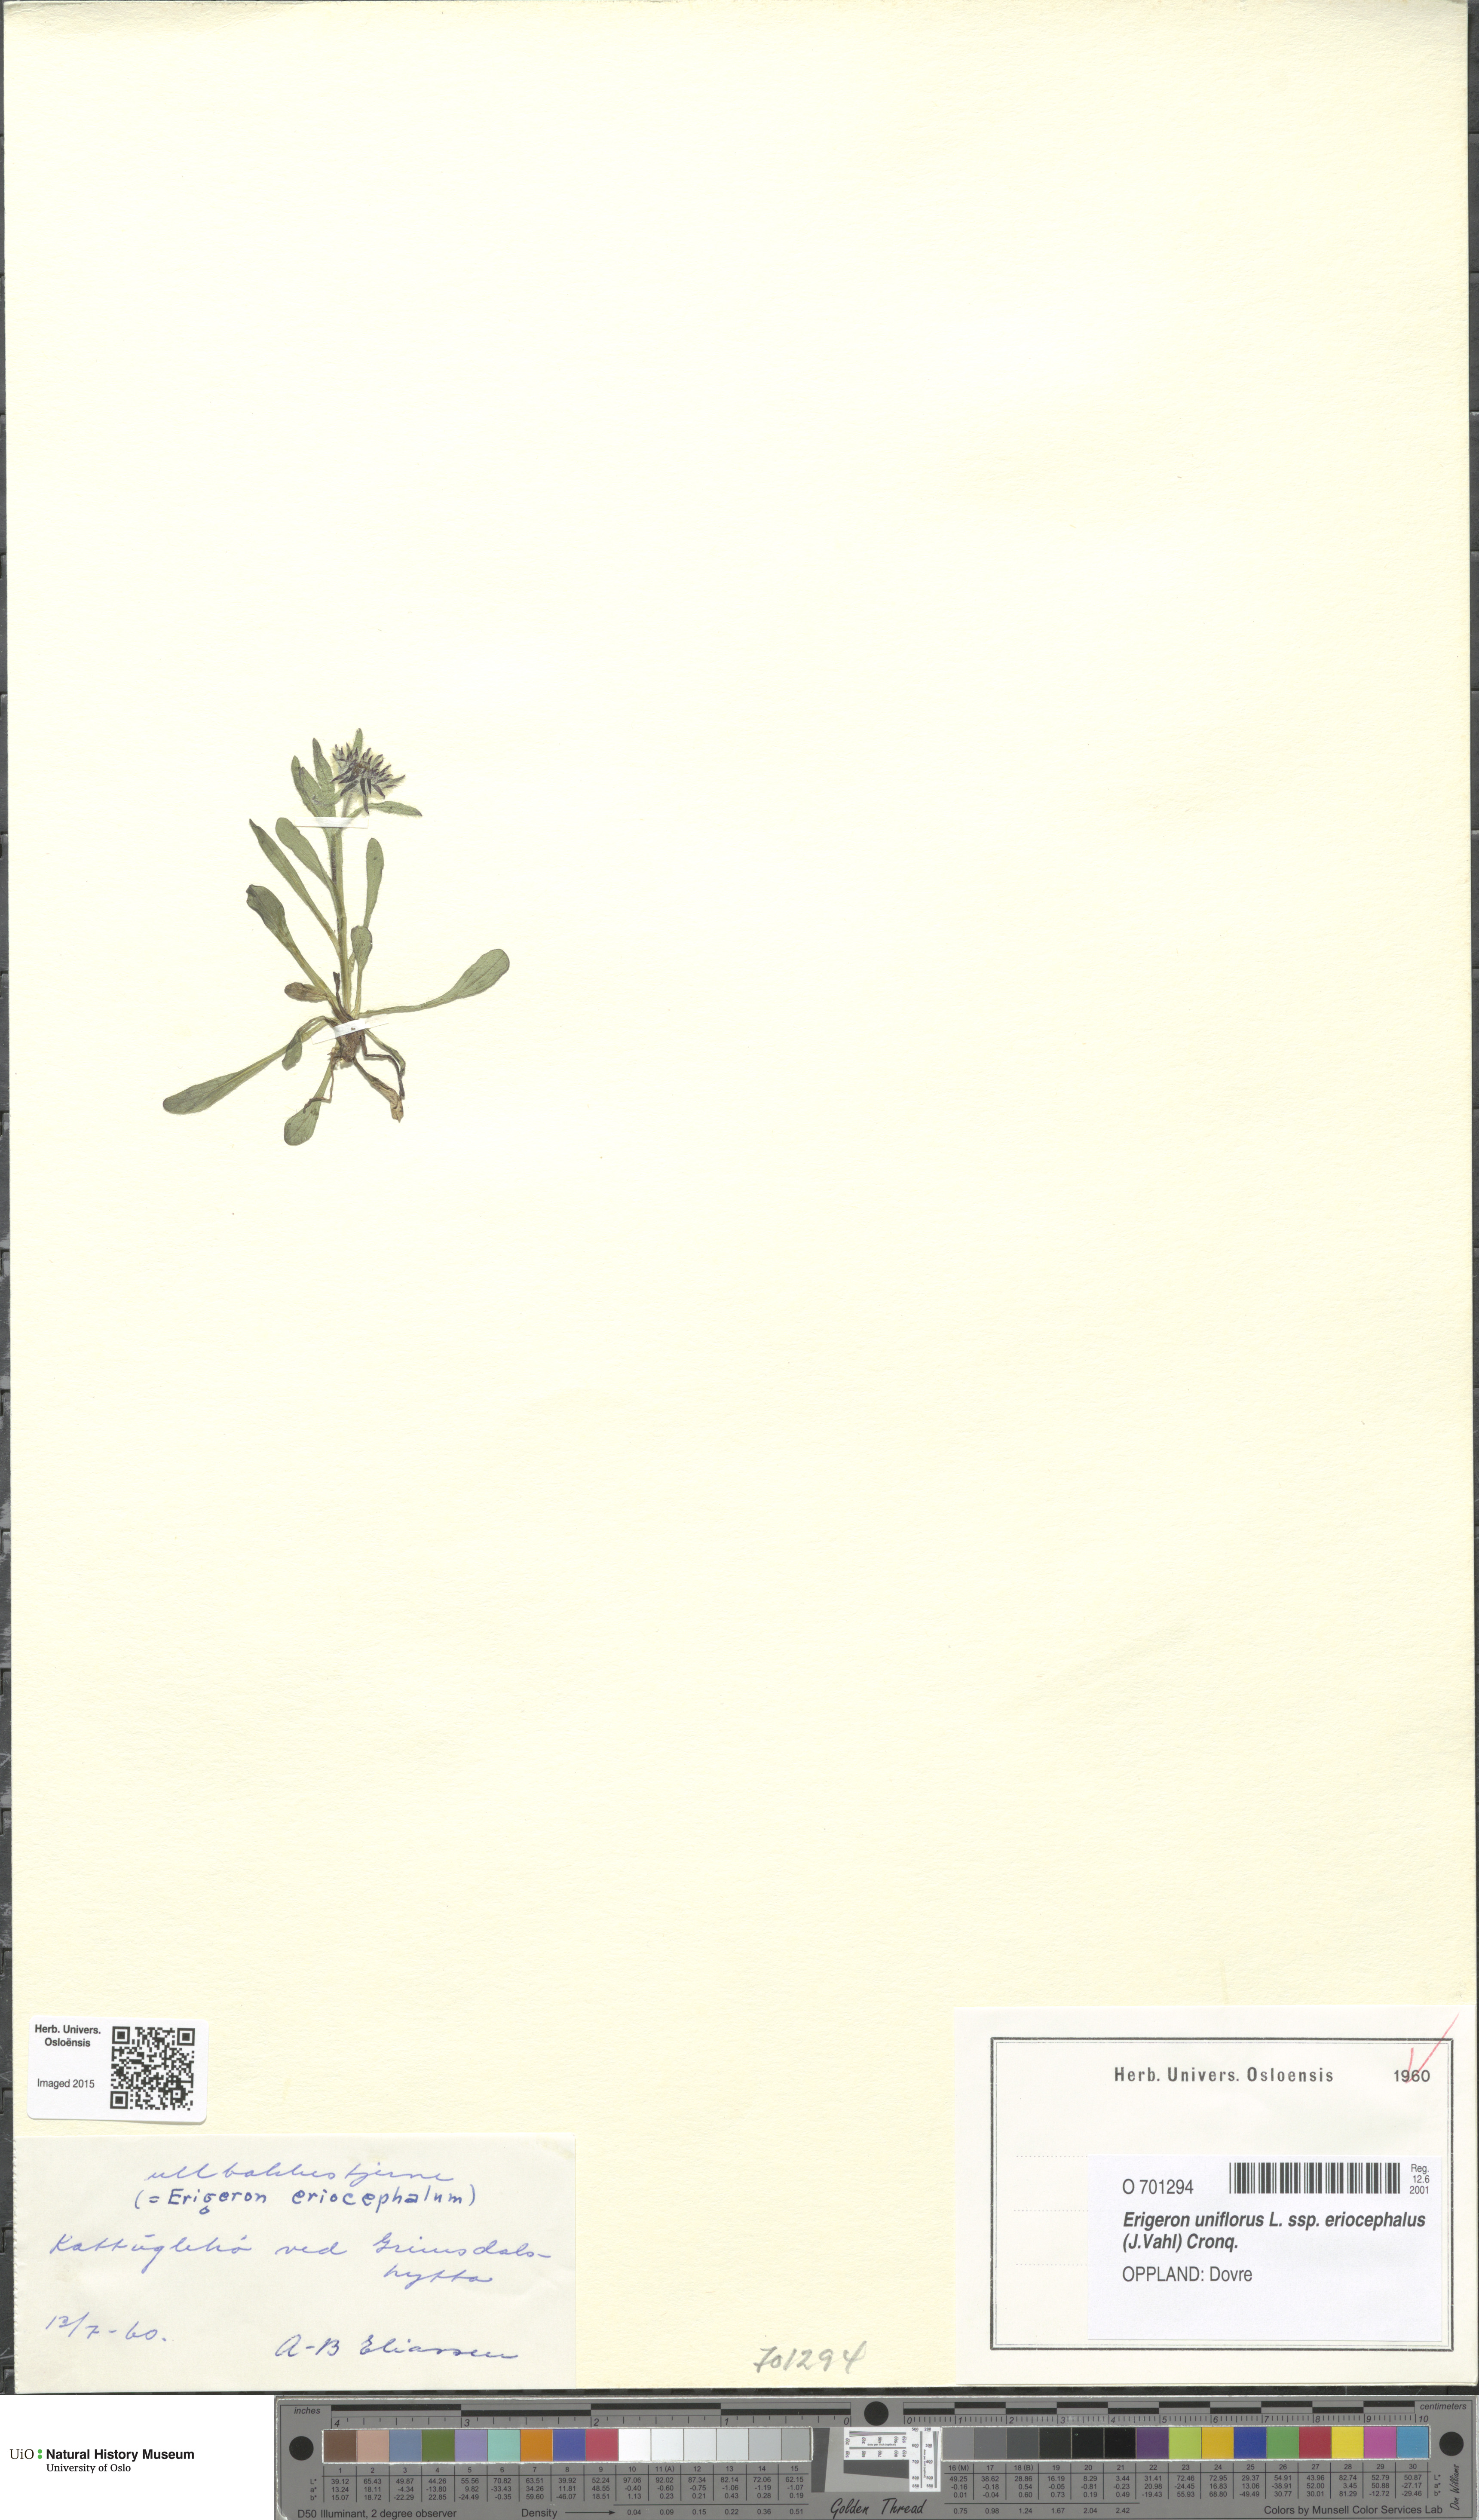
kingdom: Plantae
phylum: Tracheophyta
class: Magnoliopsida
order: Asterales
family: Asteraceae
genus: Erigeron
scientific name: Erigeron eriocephalus
